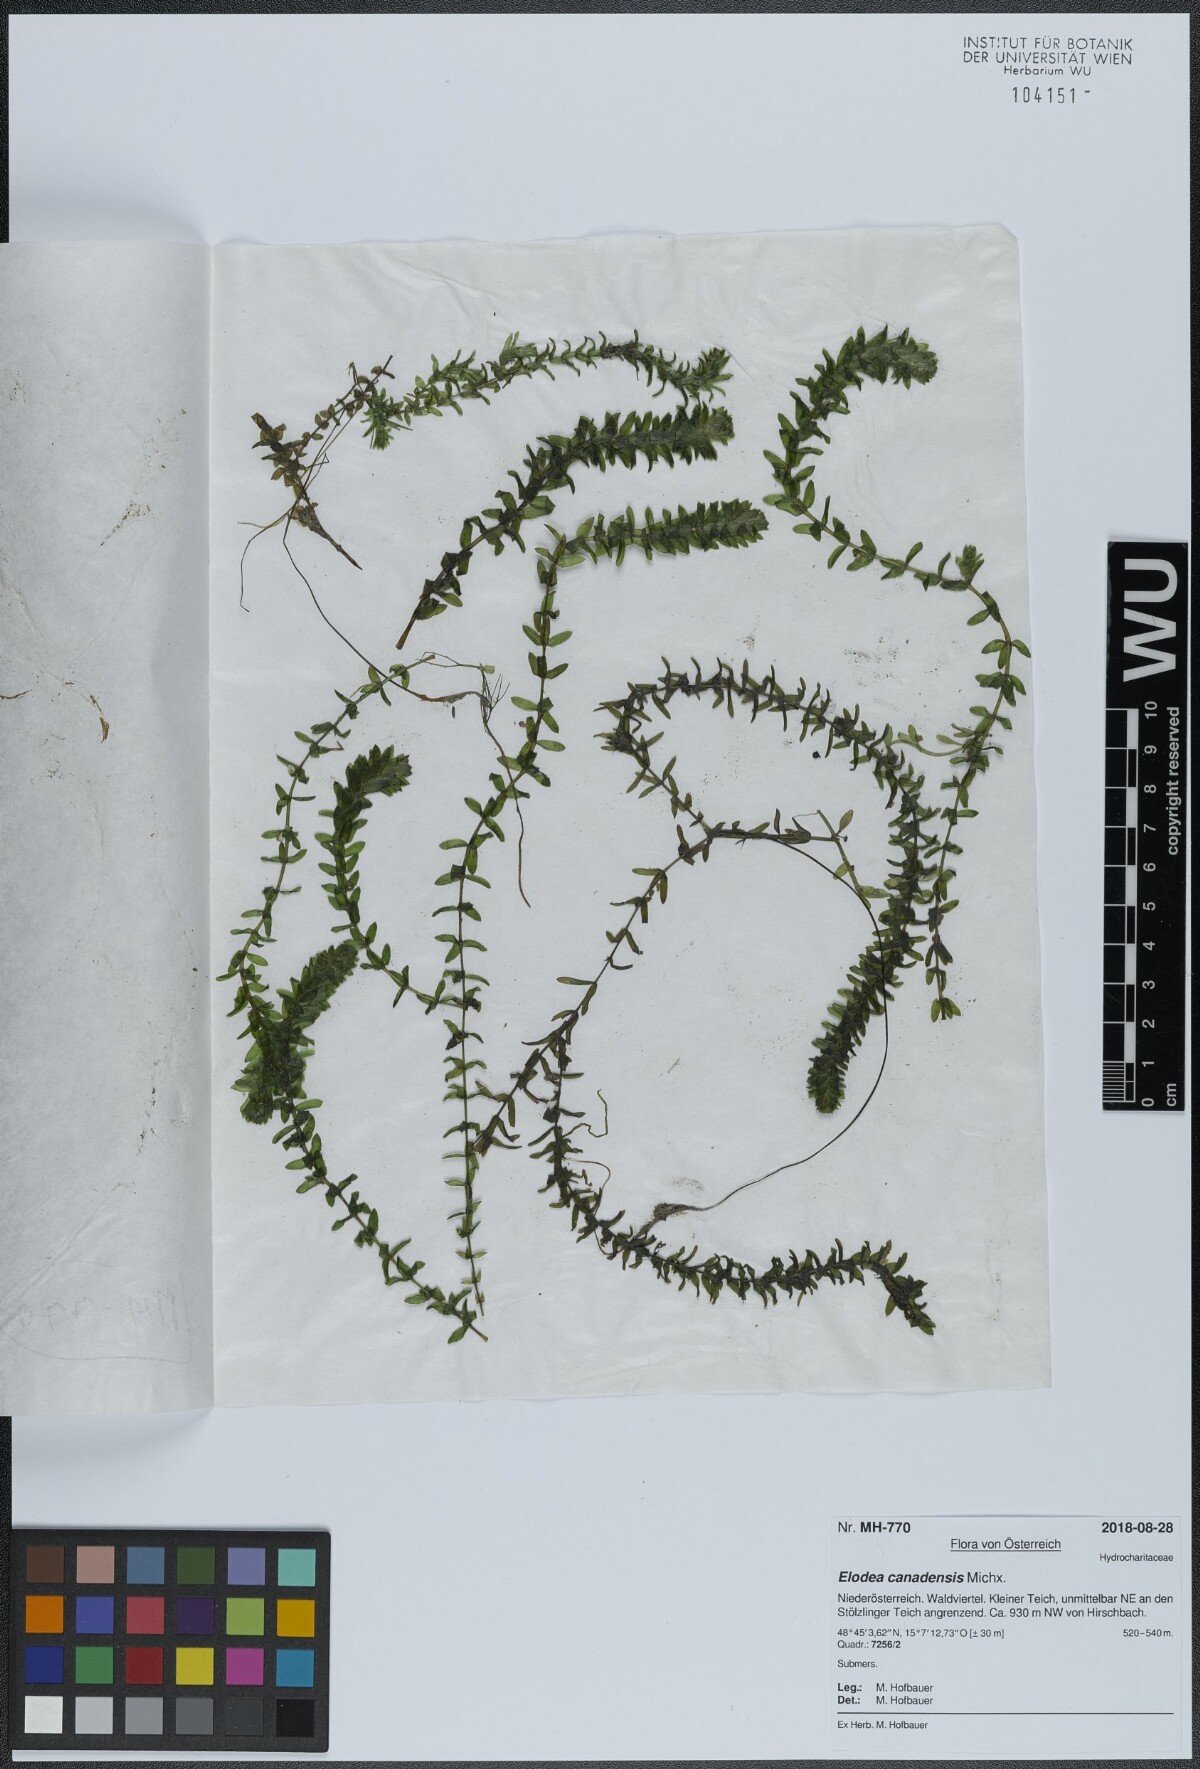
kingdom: Plantae
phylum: Tracheophyta
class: Liliopsida
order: Alismatales
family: Hydrocharitaceae
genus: Elodea
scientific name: Elodea canadensis
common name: Canadian waterweed
